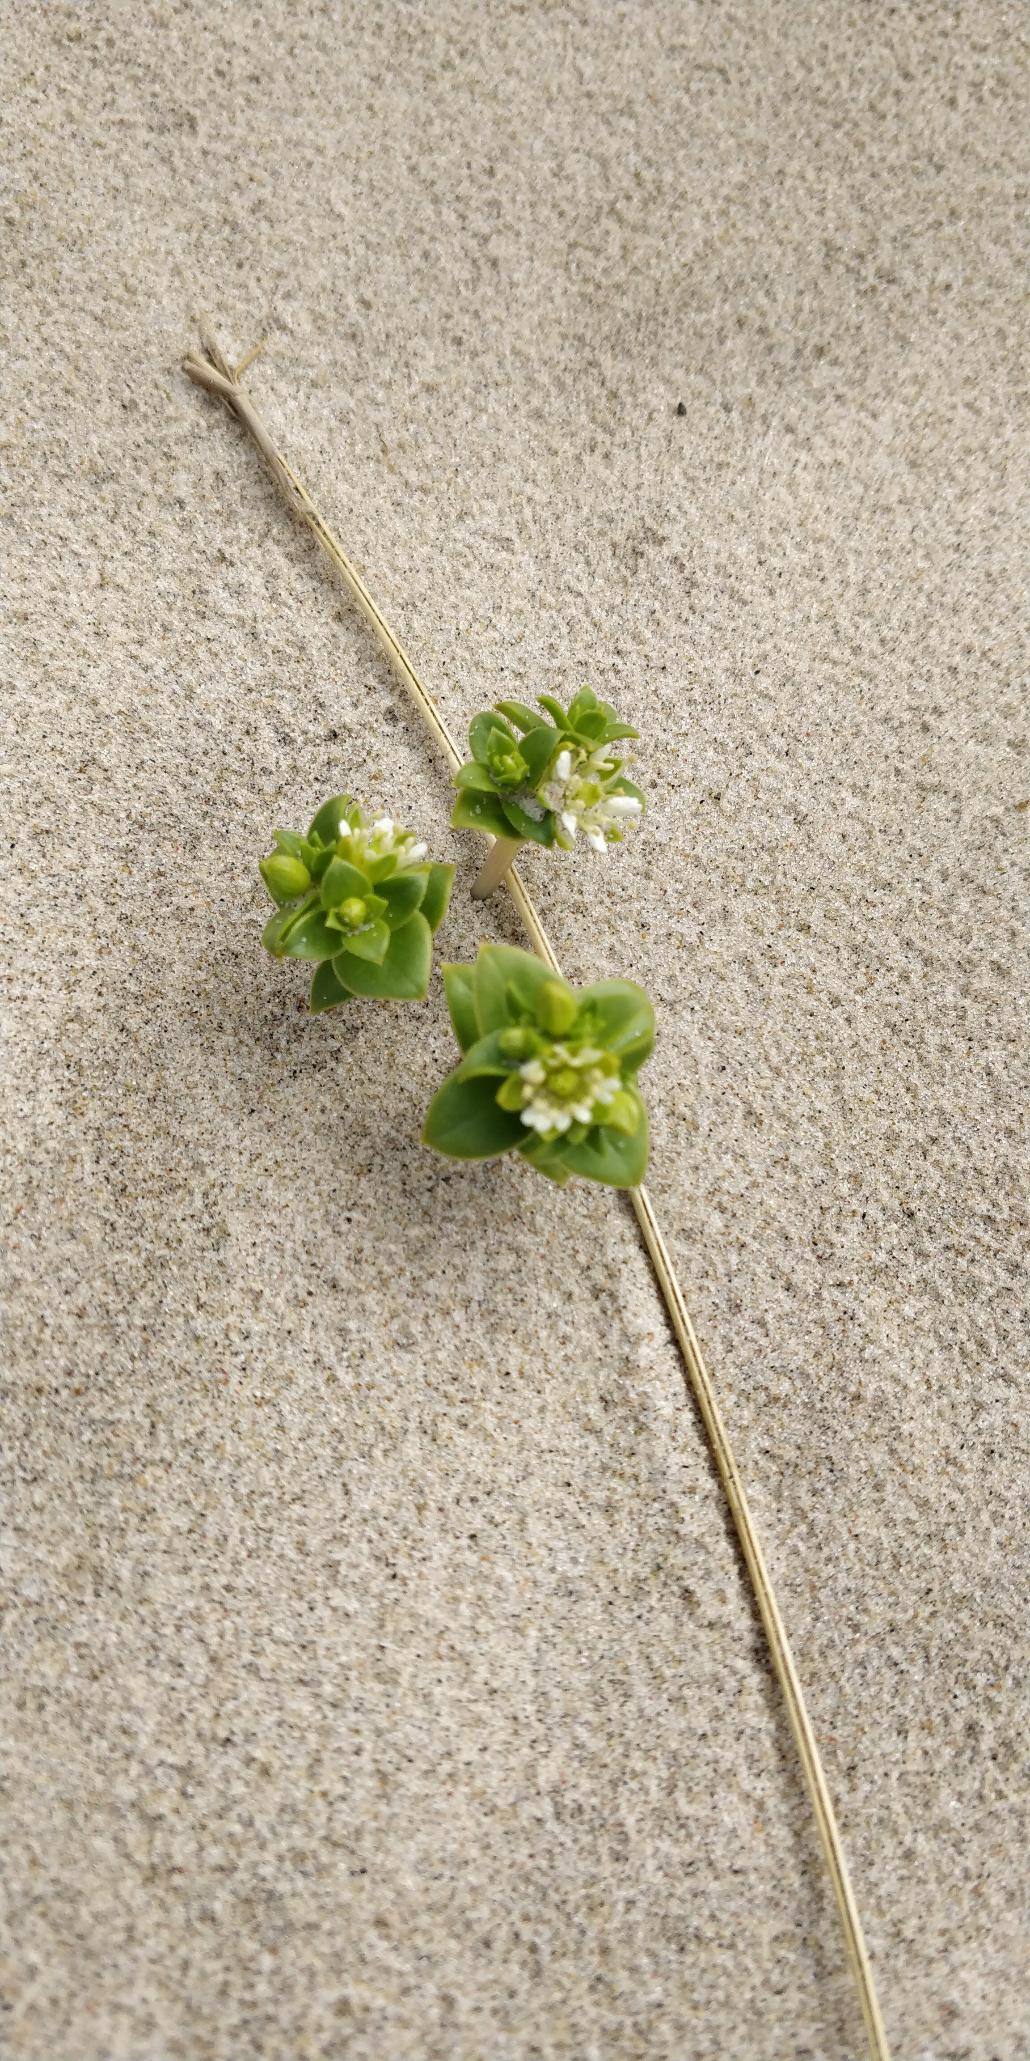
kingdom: Plantae
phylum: Tracheophyta
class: Magnoliopsida
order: Caryophyllales
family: Caryophyllaceae
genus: Honckenya
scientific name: Honckenya peploides
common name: Strandarve
